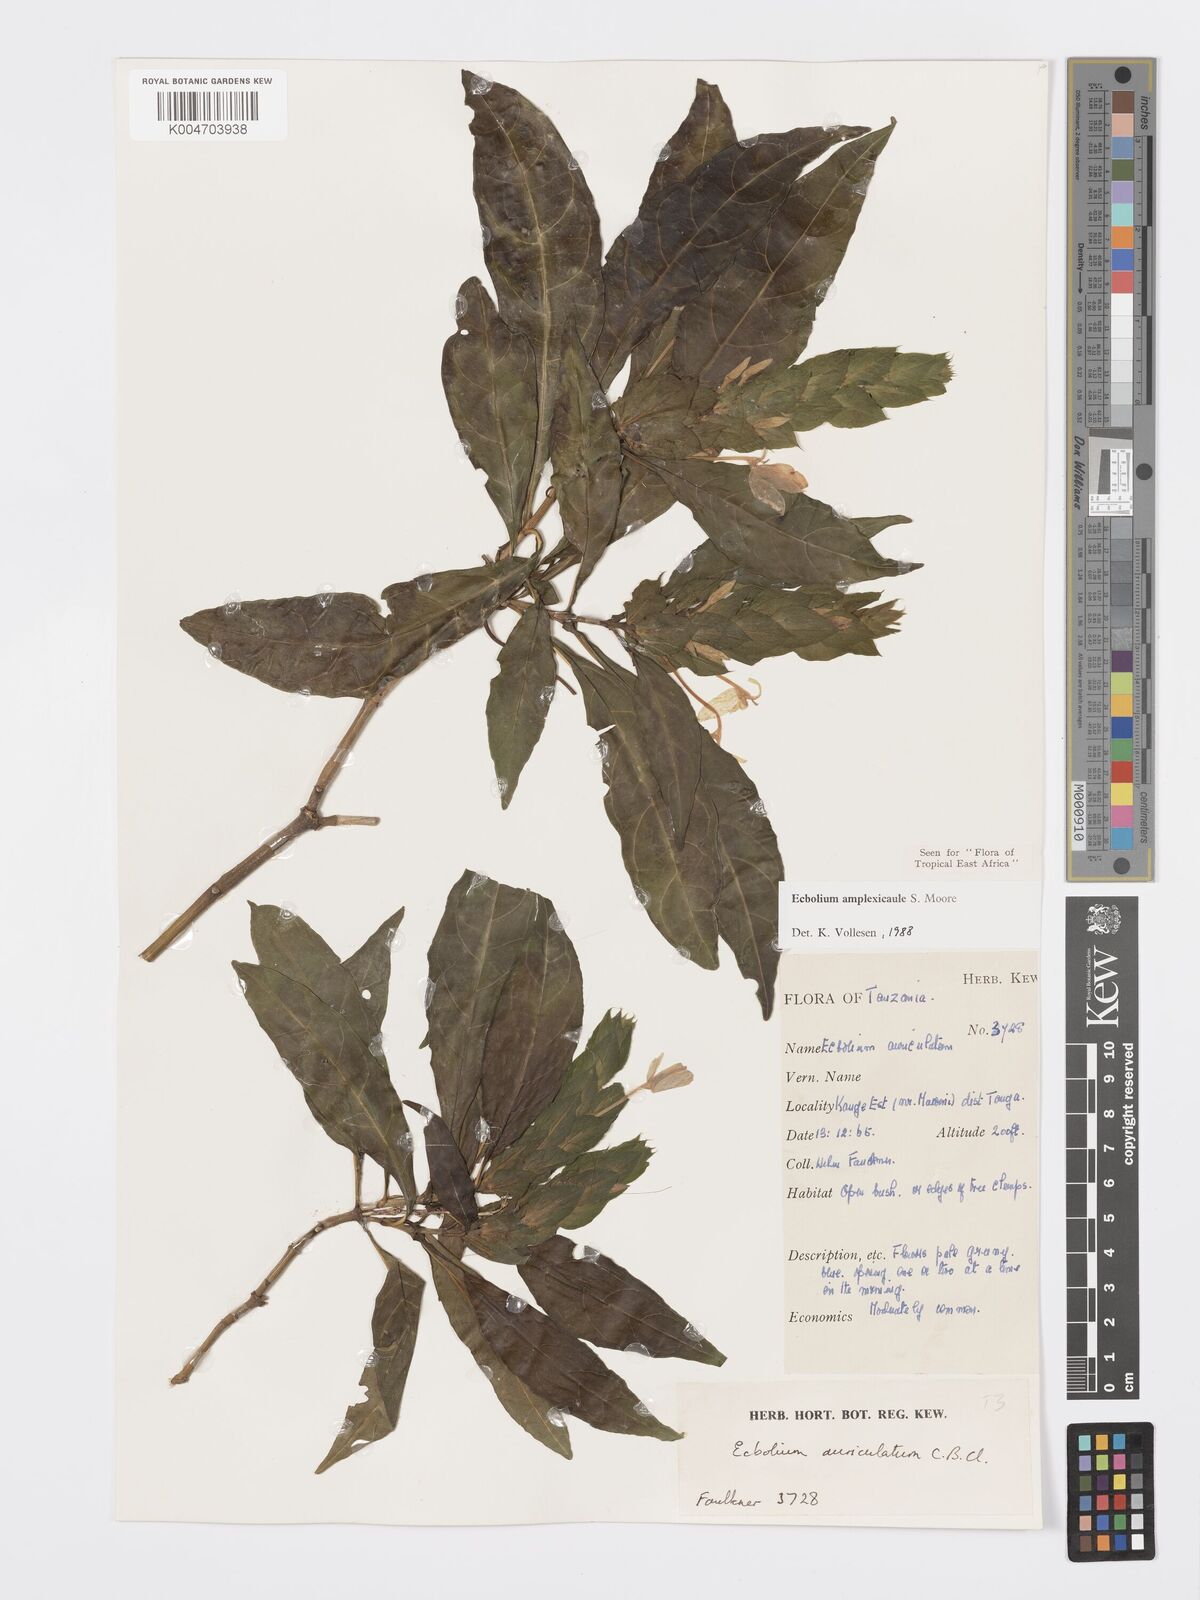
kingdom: Plantae
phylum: Tracheophyta
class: Magnoliopsida
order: Lamiales
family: Acanthaceae
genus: Ecbolium
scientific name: Ecbolium amplexicaule
